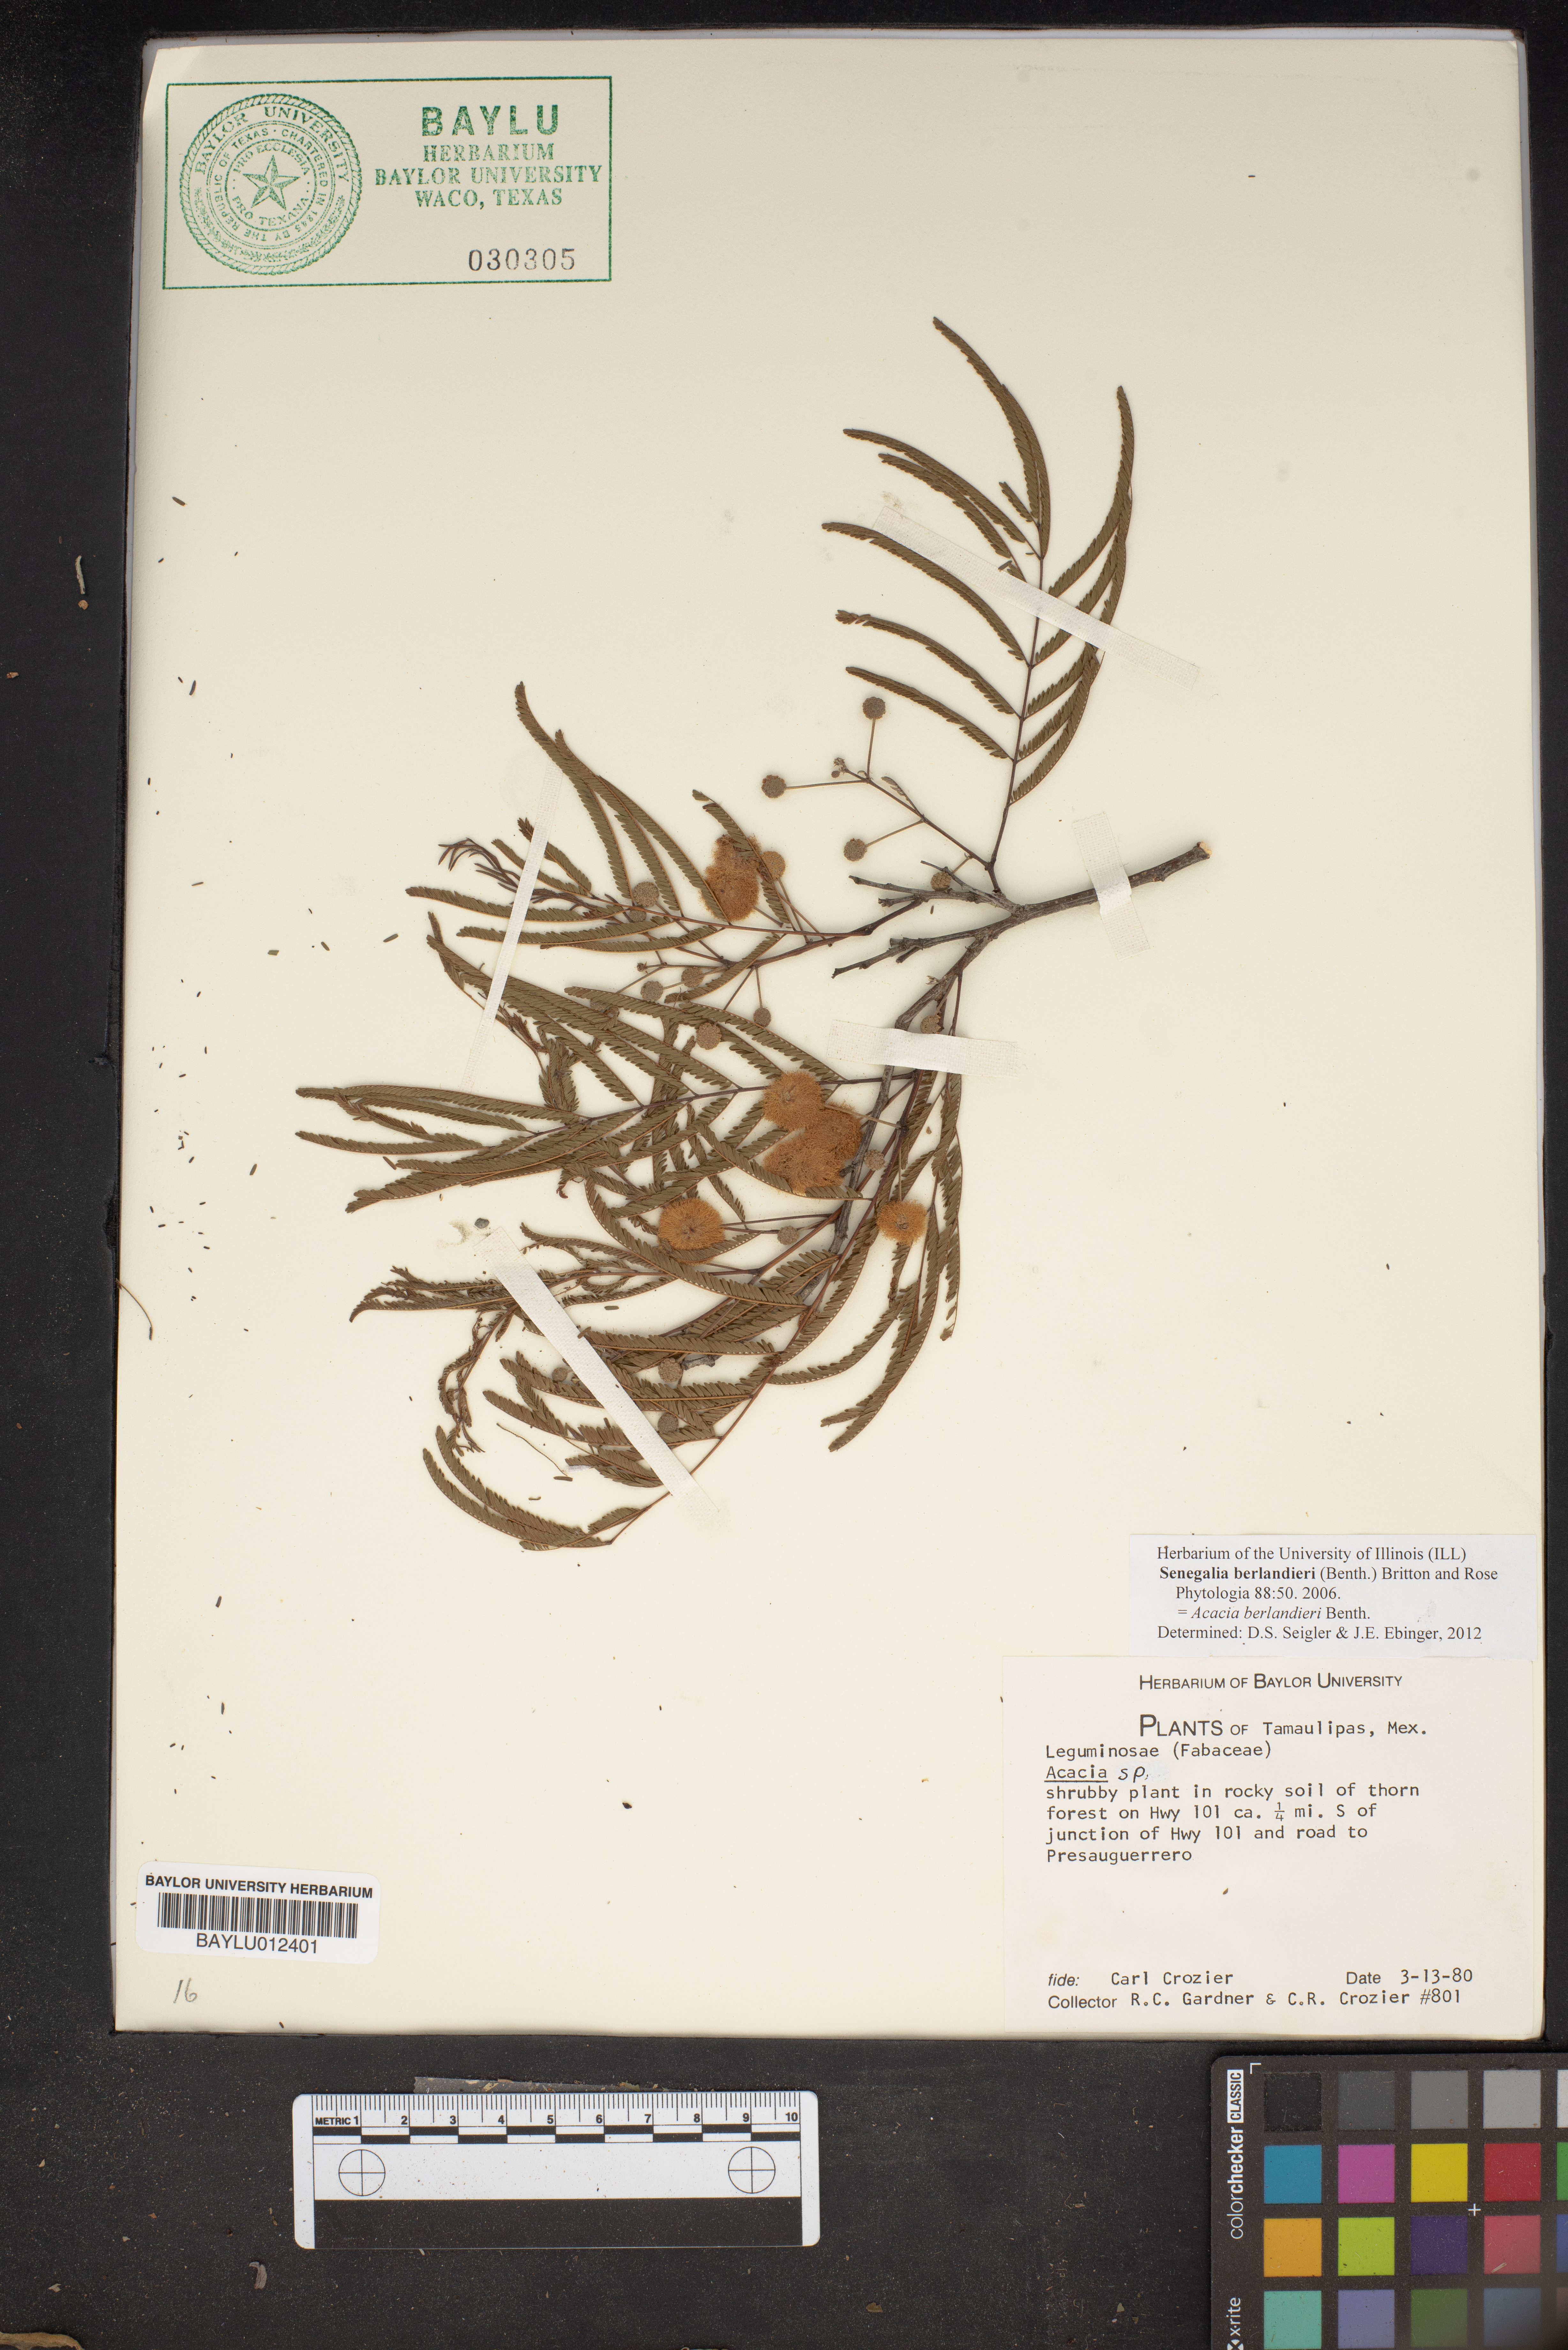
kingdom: Plantae
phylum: Tracheophyta
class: Magnoliopsida
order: Fabales
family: Fabaceae
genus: Senegalia
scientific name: Senegalia berlandieri
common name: Berlandier acacia
